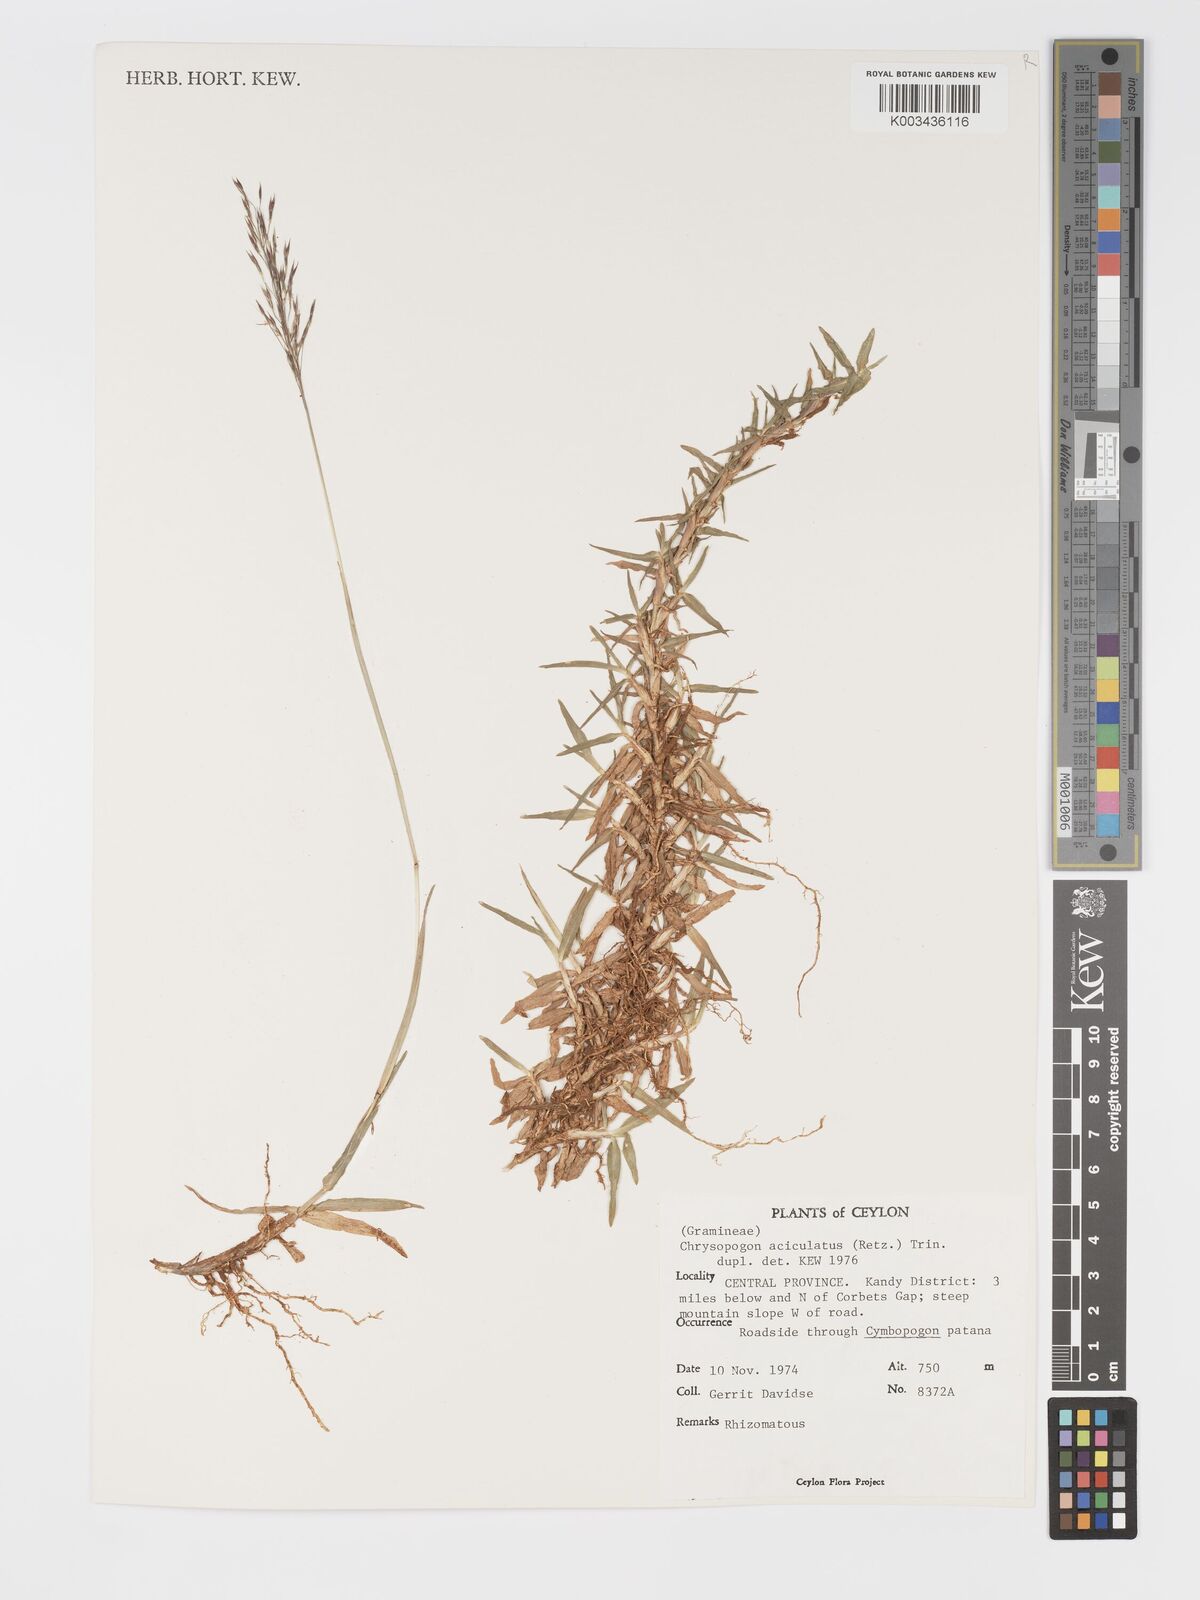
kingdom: Plantae
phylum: Tracheophyta
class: Liliopsida
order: Poales
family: Poaceae
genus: Chrysopogon
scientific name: Chrysopogon aciculatus
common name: Pilipiliula
